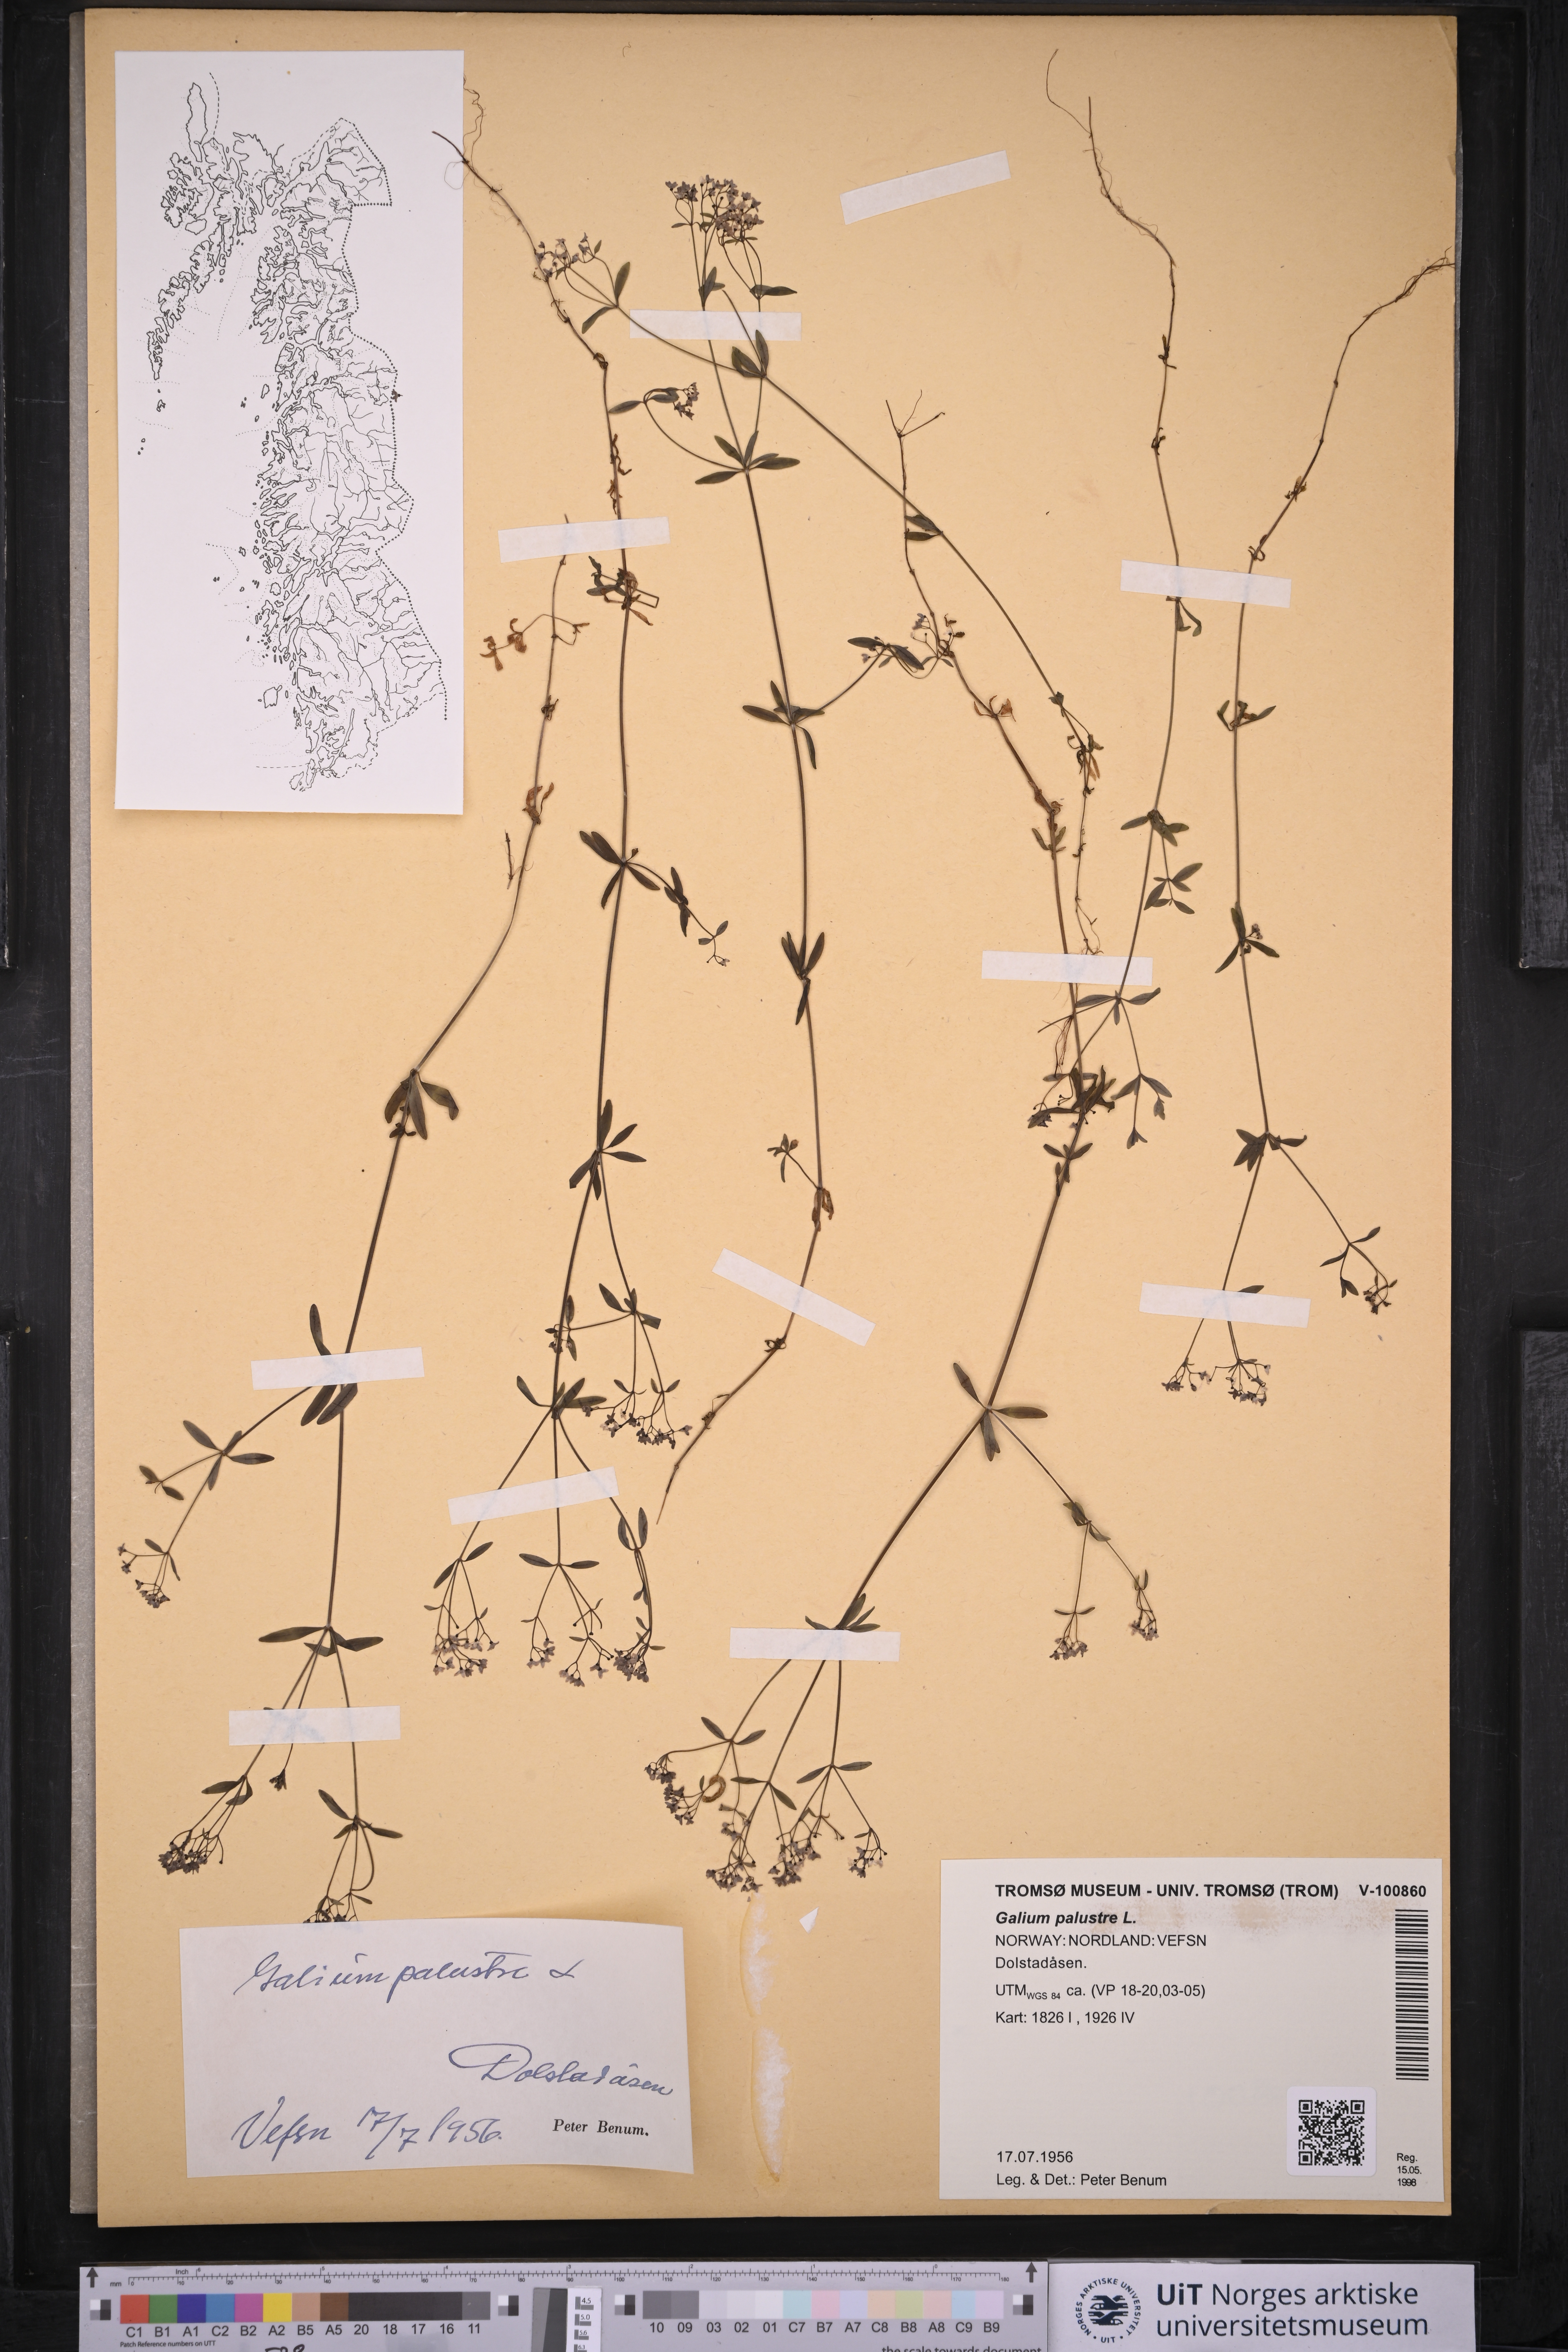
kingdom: Plantae
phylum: Tracheophyta
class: Magnoliopsida
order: Gentianales
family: Rubiaceae
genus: Galium
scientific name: Galium palustre
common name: Common marsh-bedstraw
